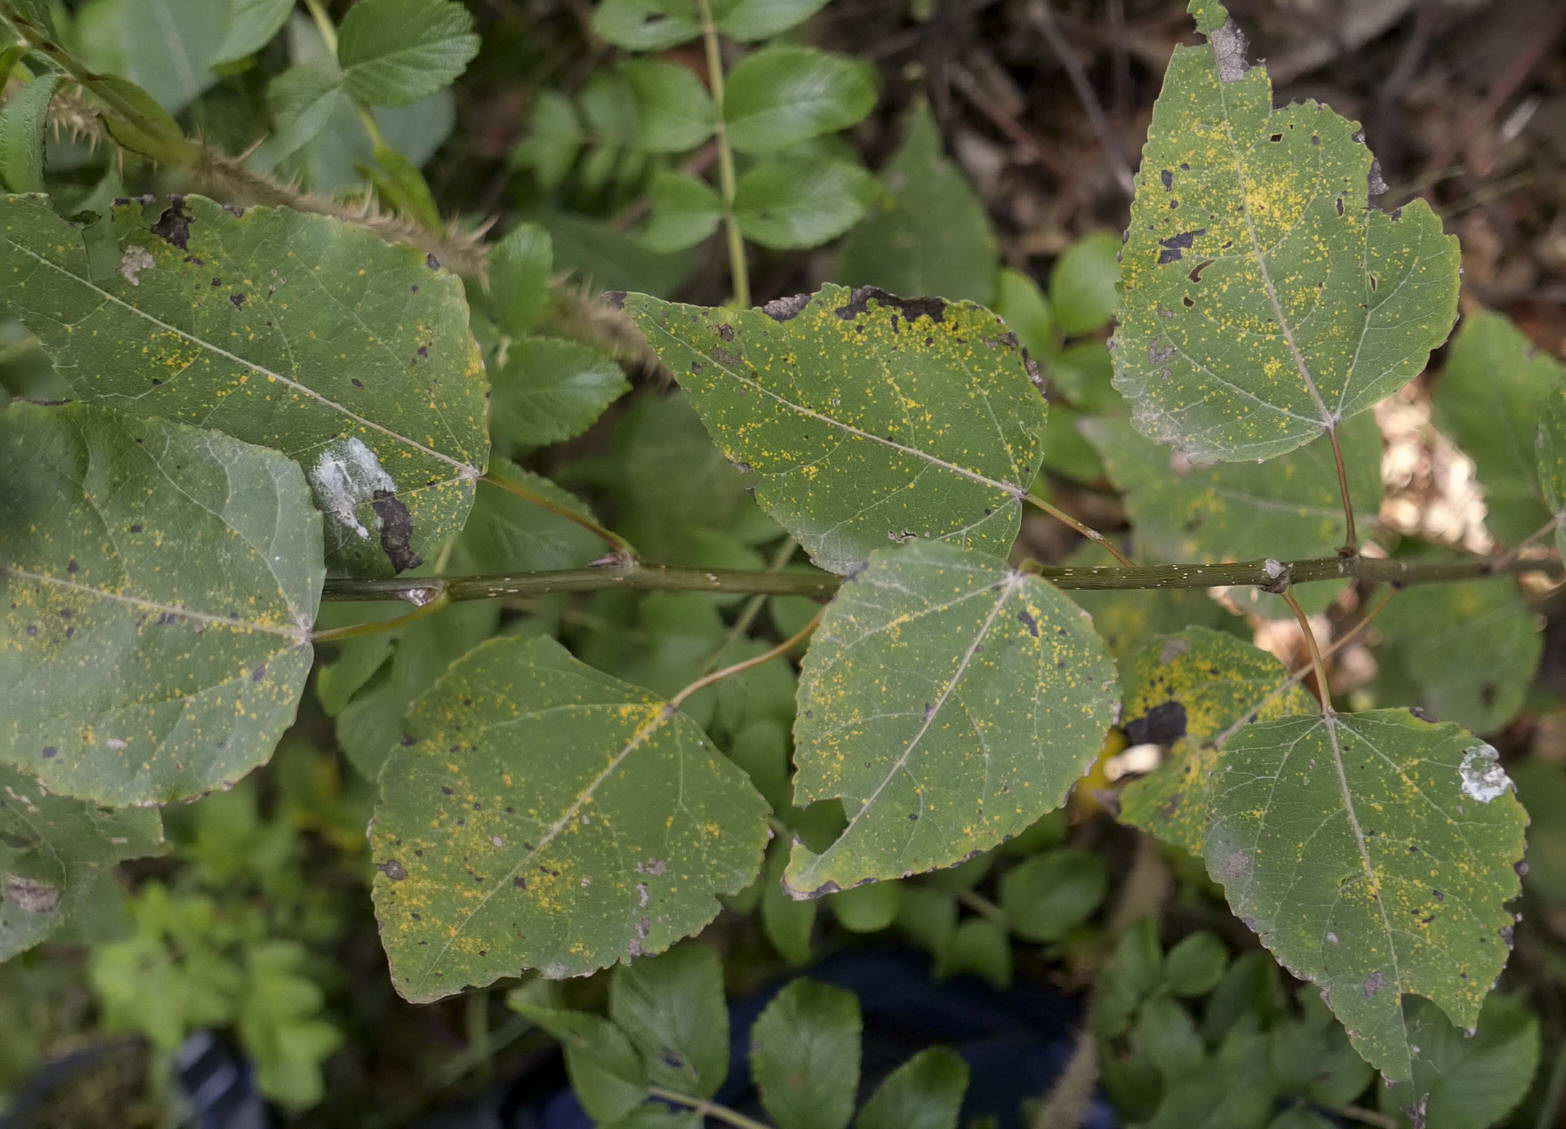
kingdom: Fungi
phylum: Basidiomycota
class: Pucciniomycetes
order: Pucciniales
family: Melampsoraceae
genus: Melampsora
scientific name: Melampsora populnea
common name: poppel-skorperust
